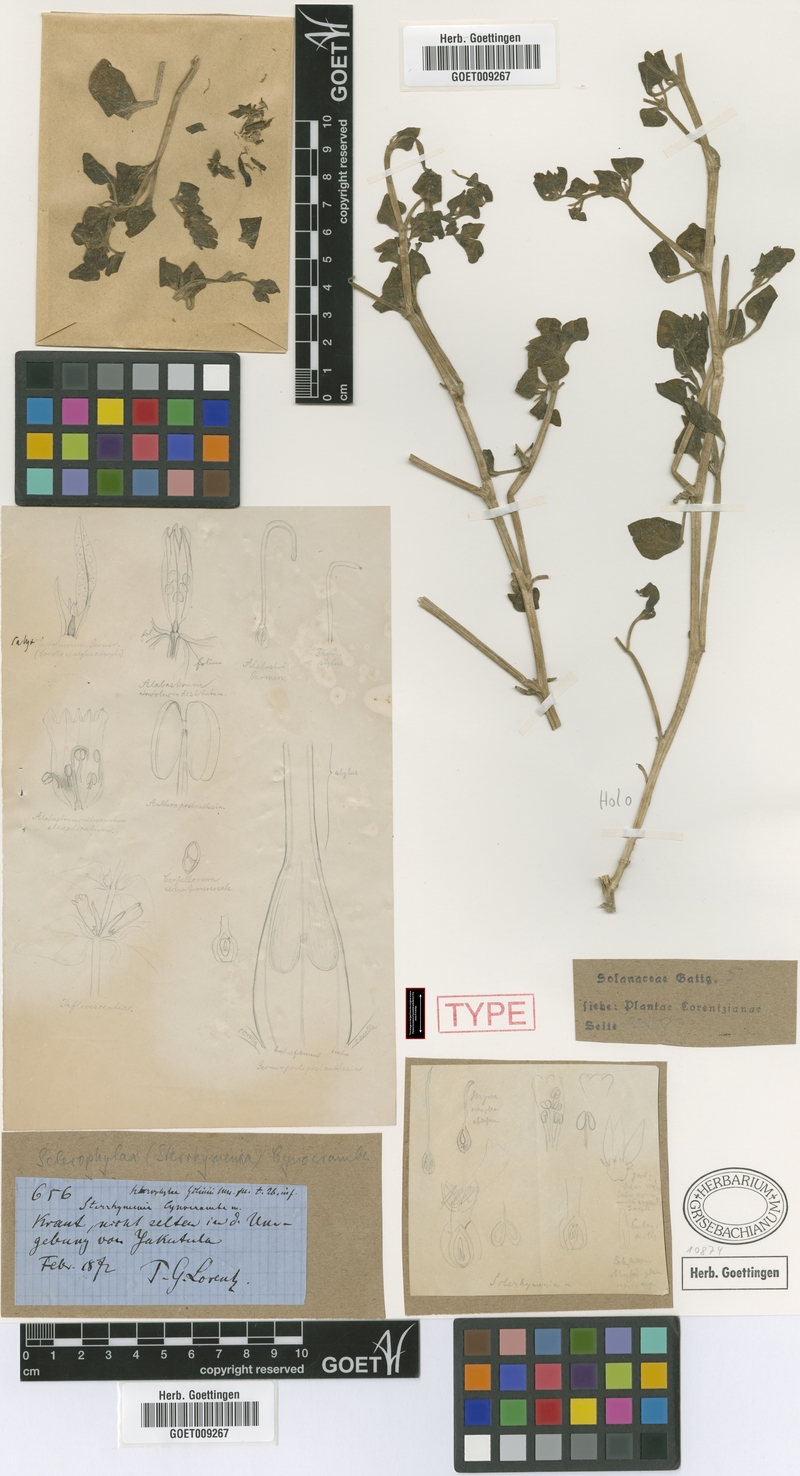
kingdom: Plantae
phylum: Tracheophyta
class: Magnoliopsida
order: Solanales
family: Solanaceae
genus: Sclerophylax
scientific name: Sclerophylax cynocrambe
